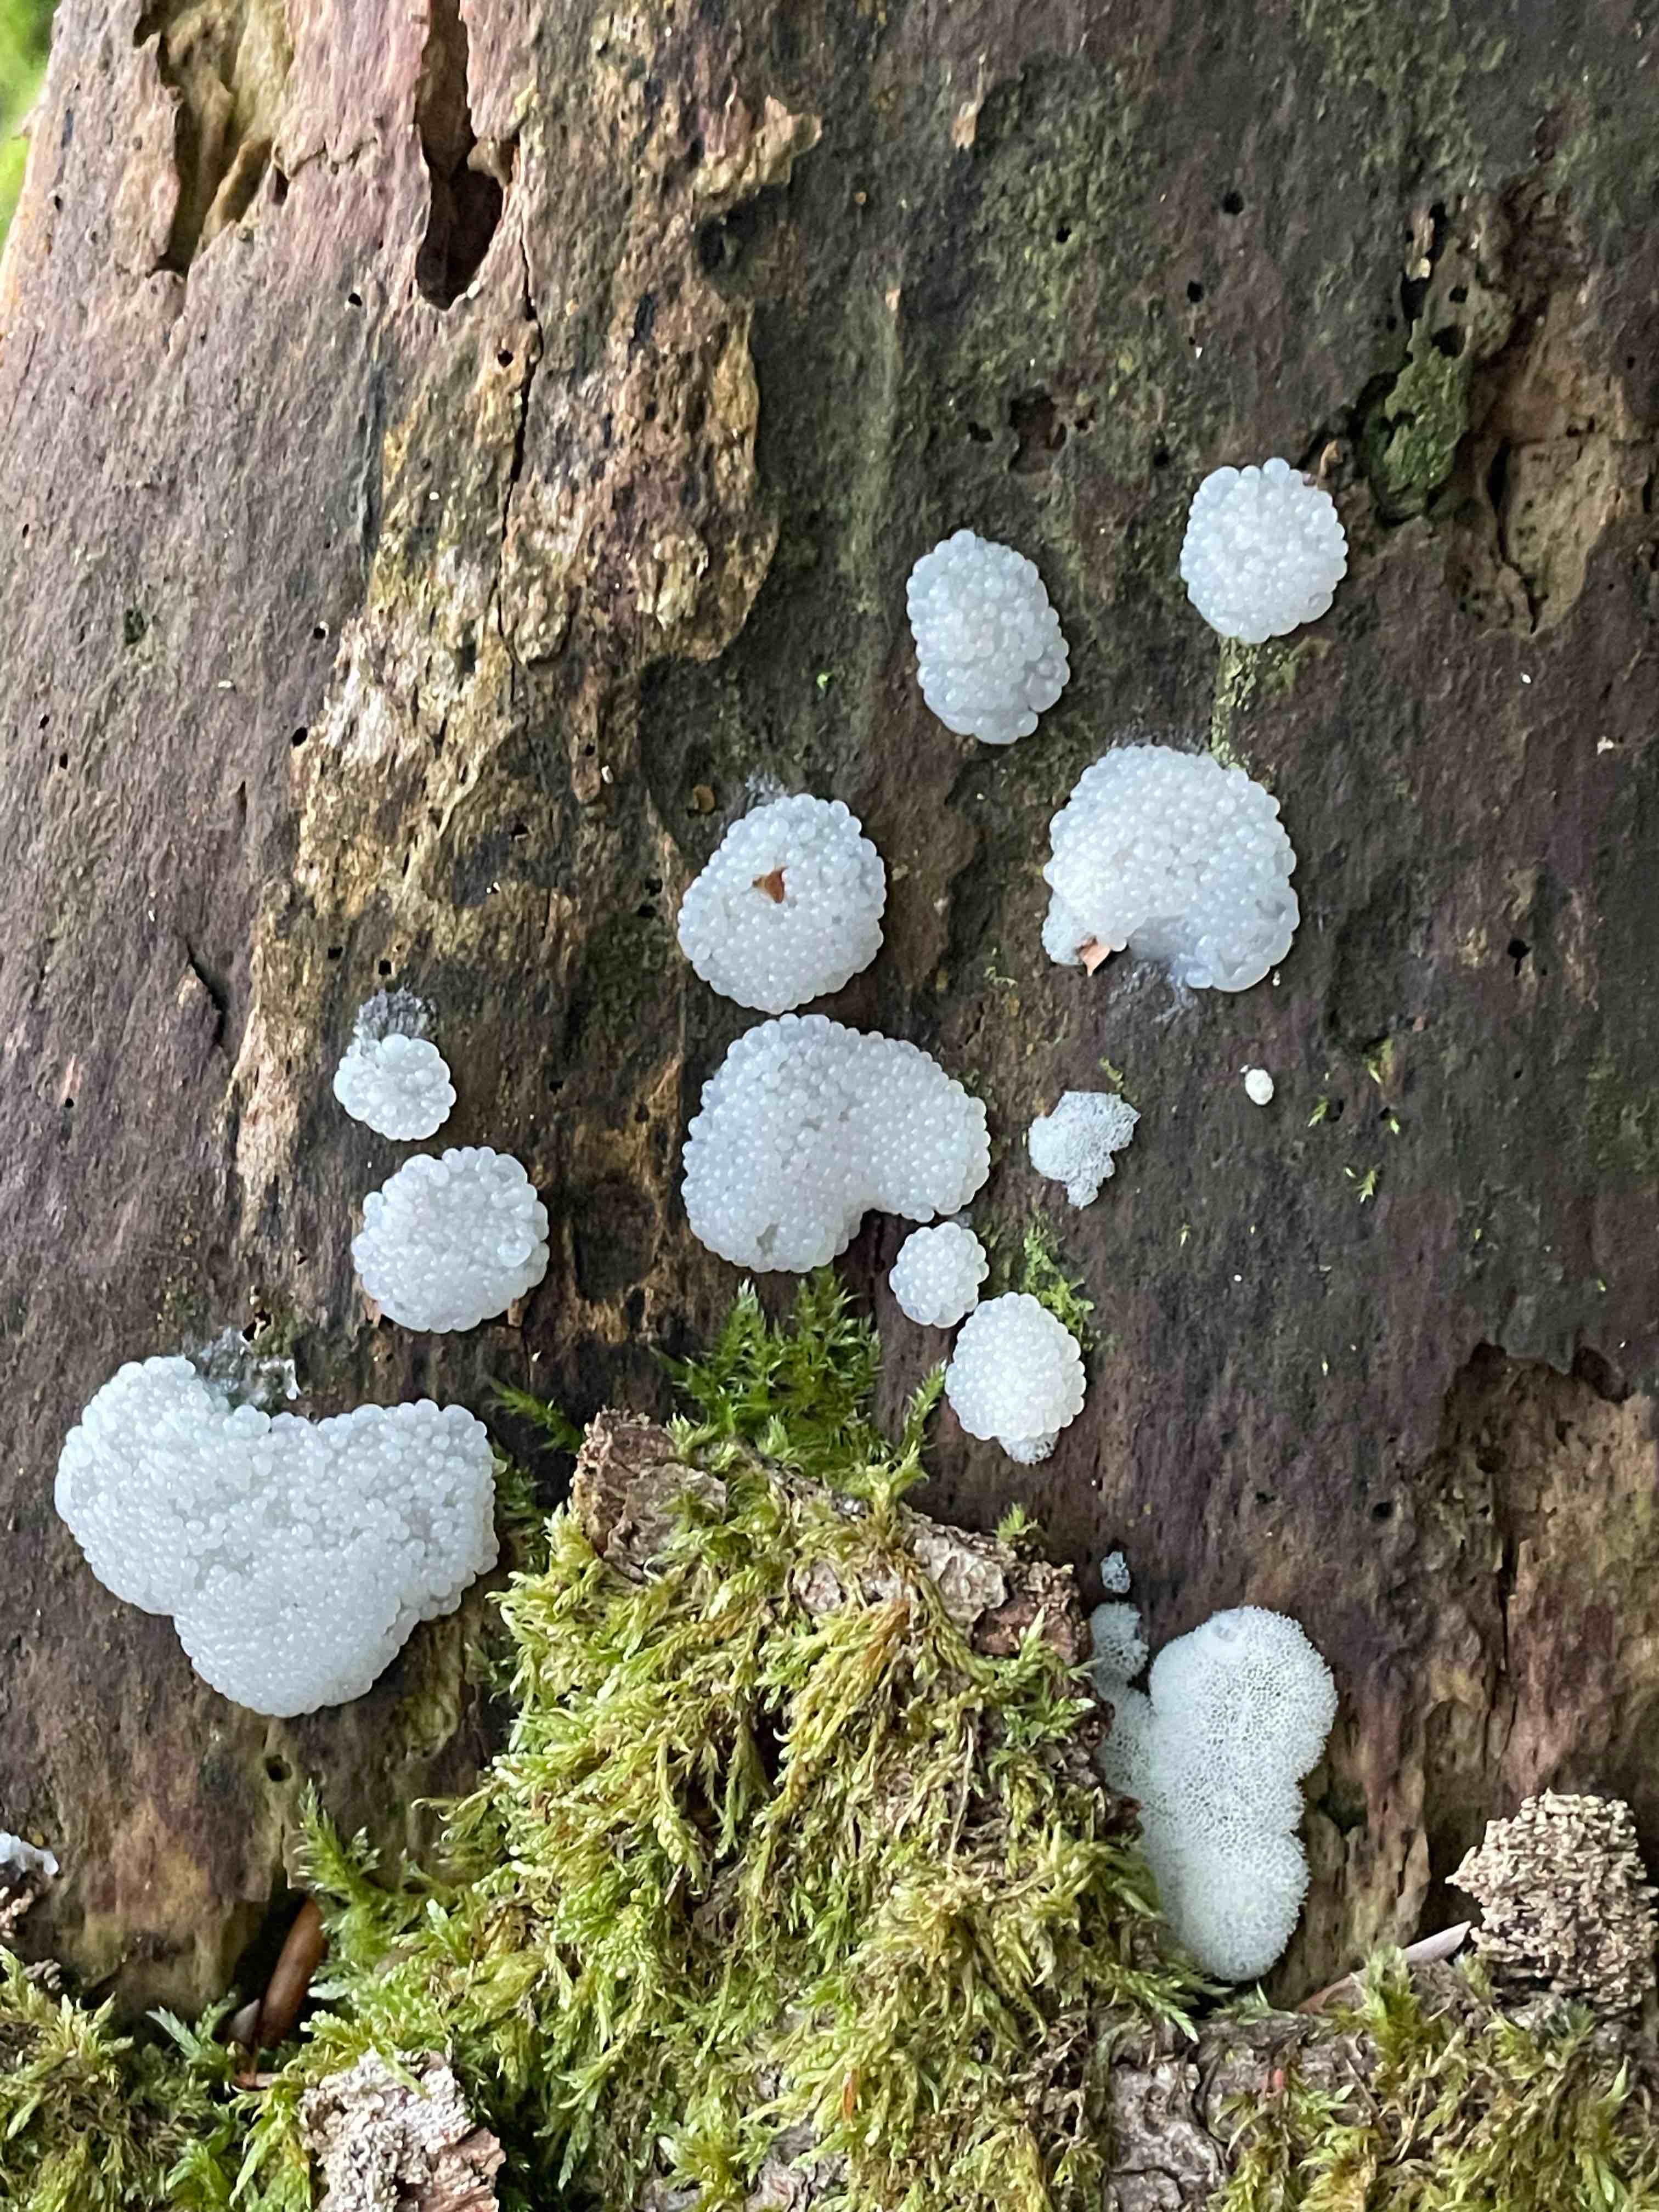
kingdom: Protozoa
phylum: Mycetozoa
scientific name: Mycetozoa
